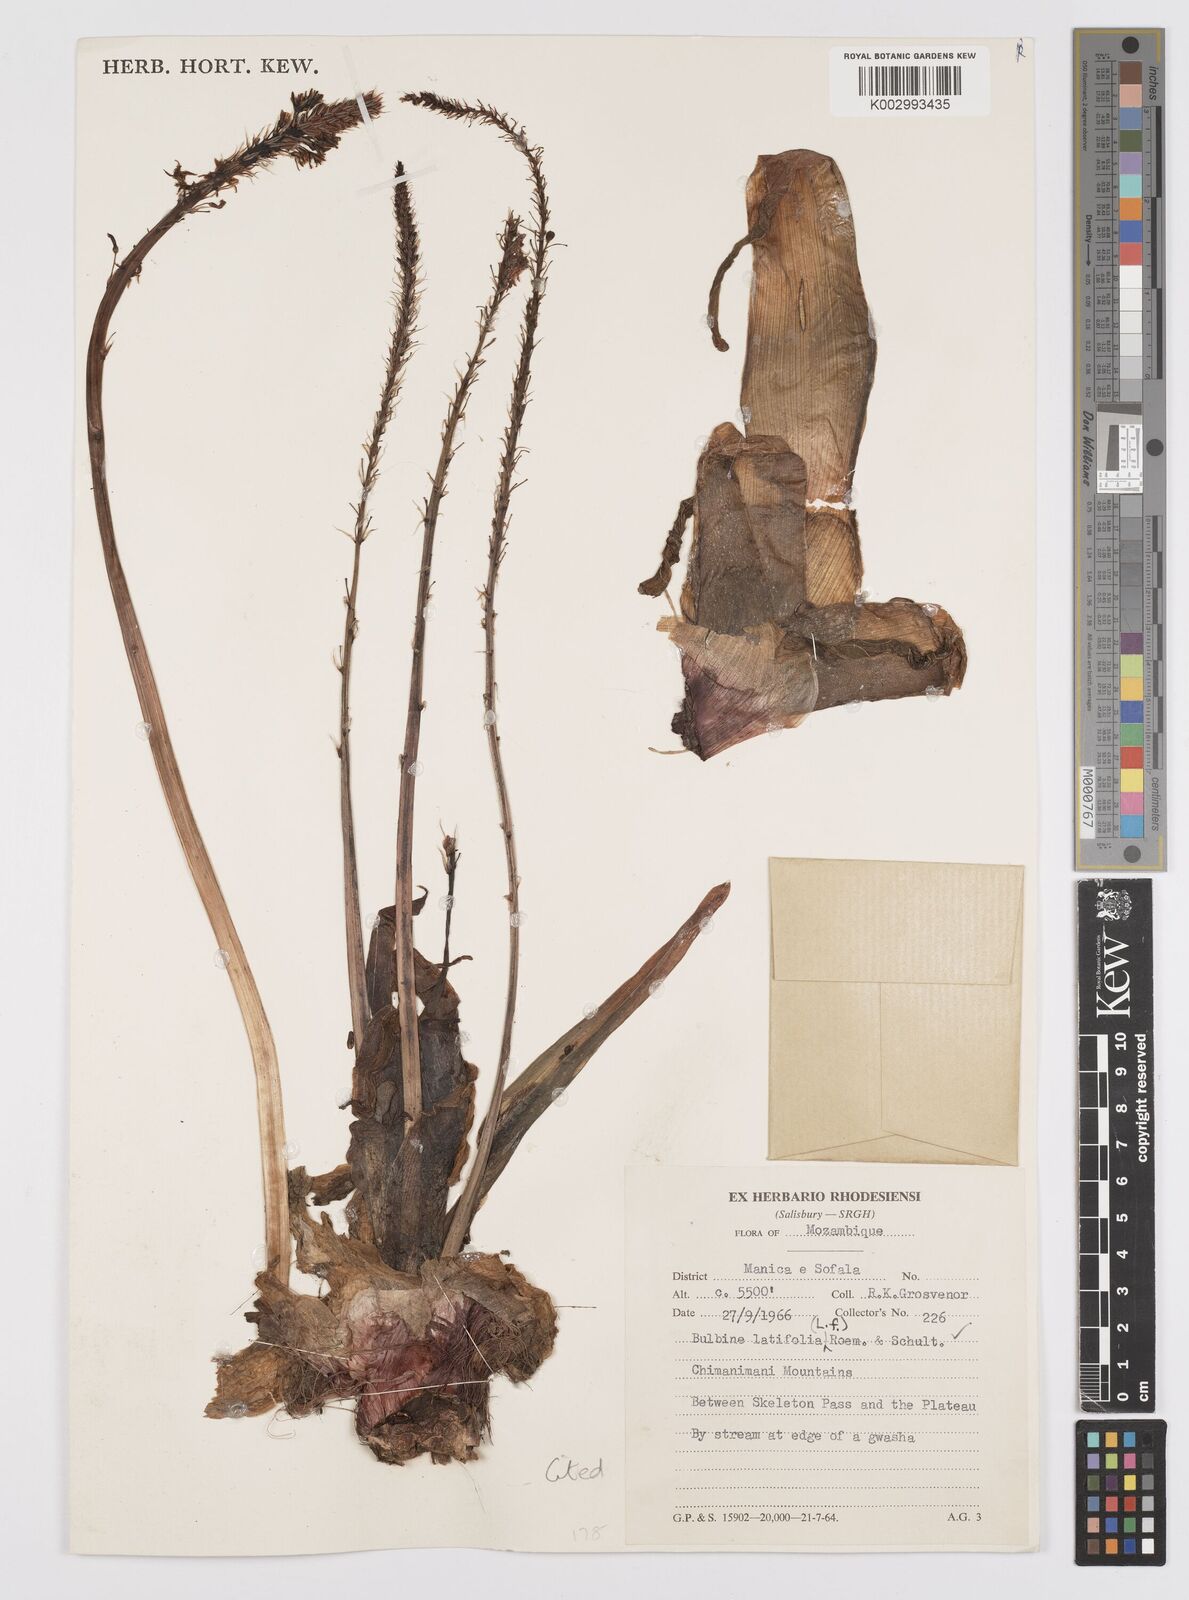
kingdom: Plantae
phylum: Tracheophyta
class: Liliopsida
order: Asparagales
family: Asphodelaceae
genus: Bulbine
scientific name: Bulbine
